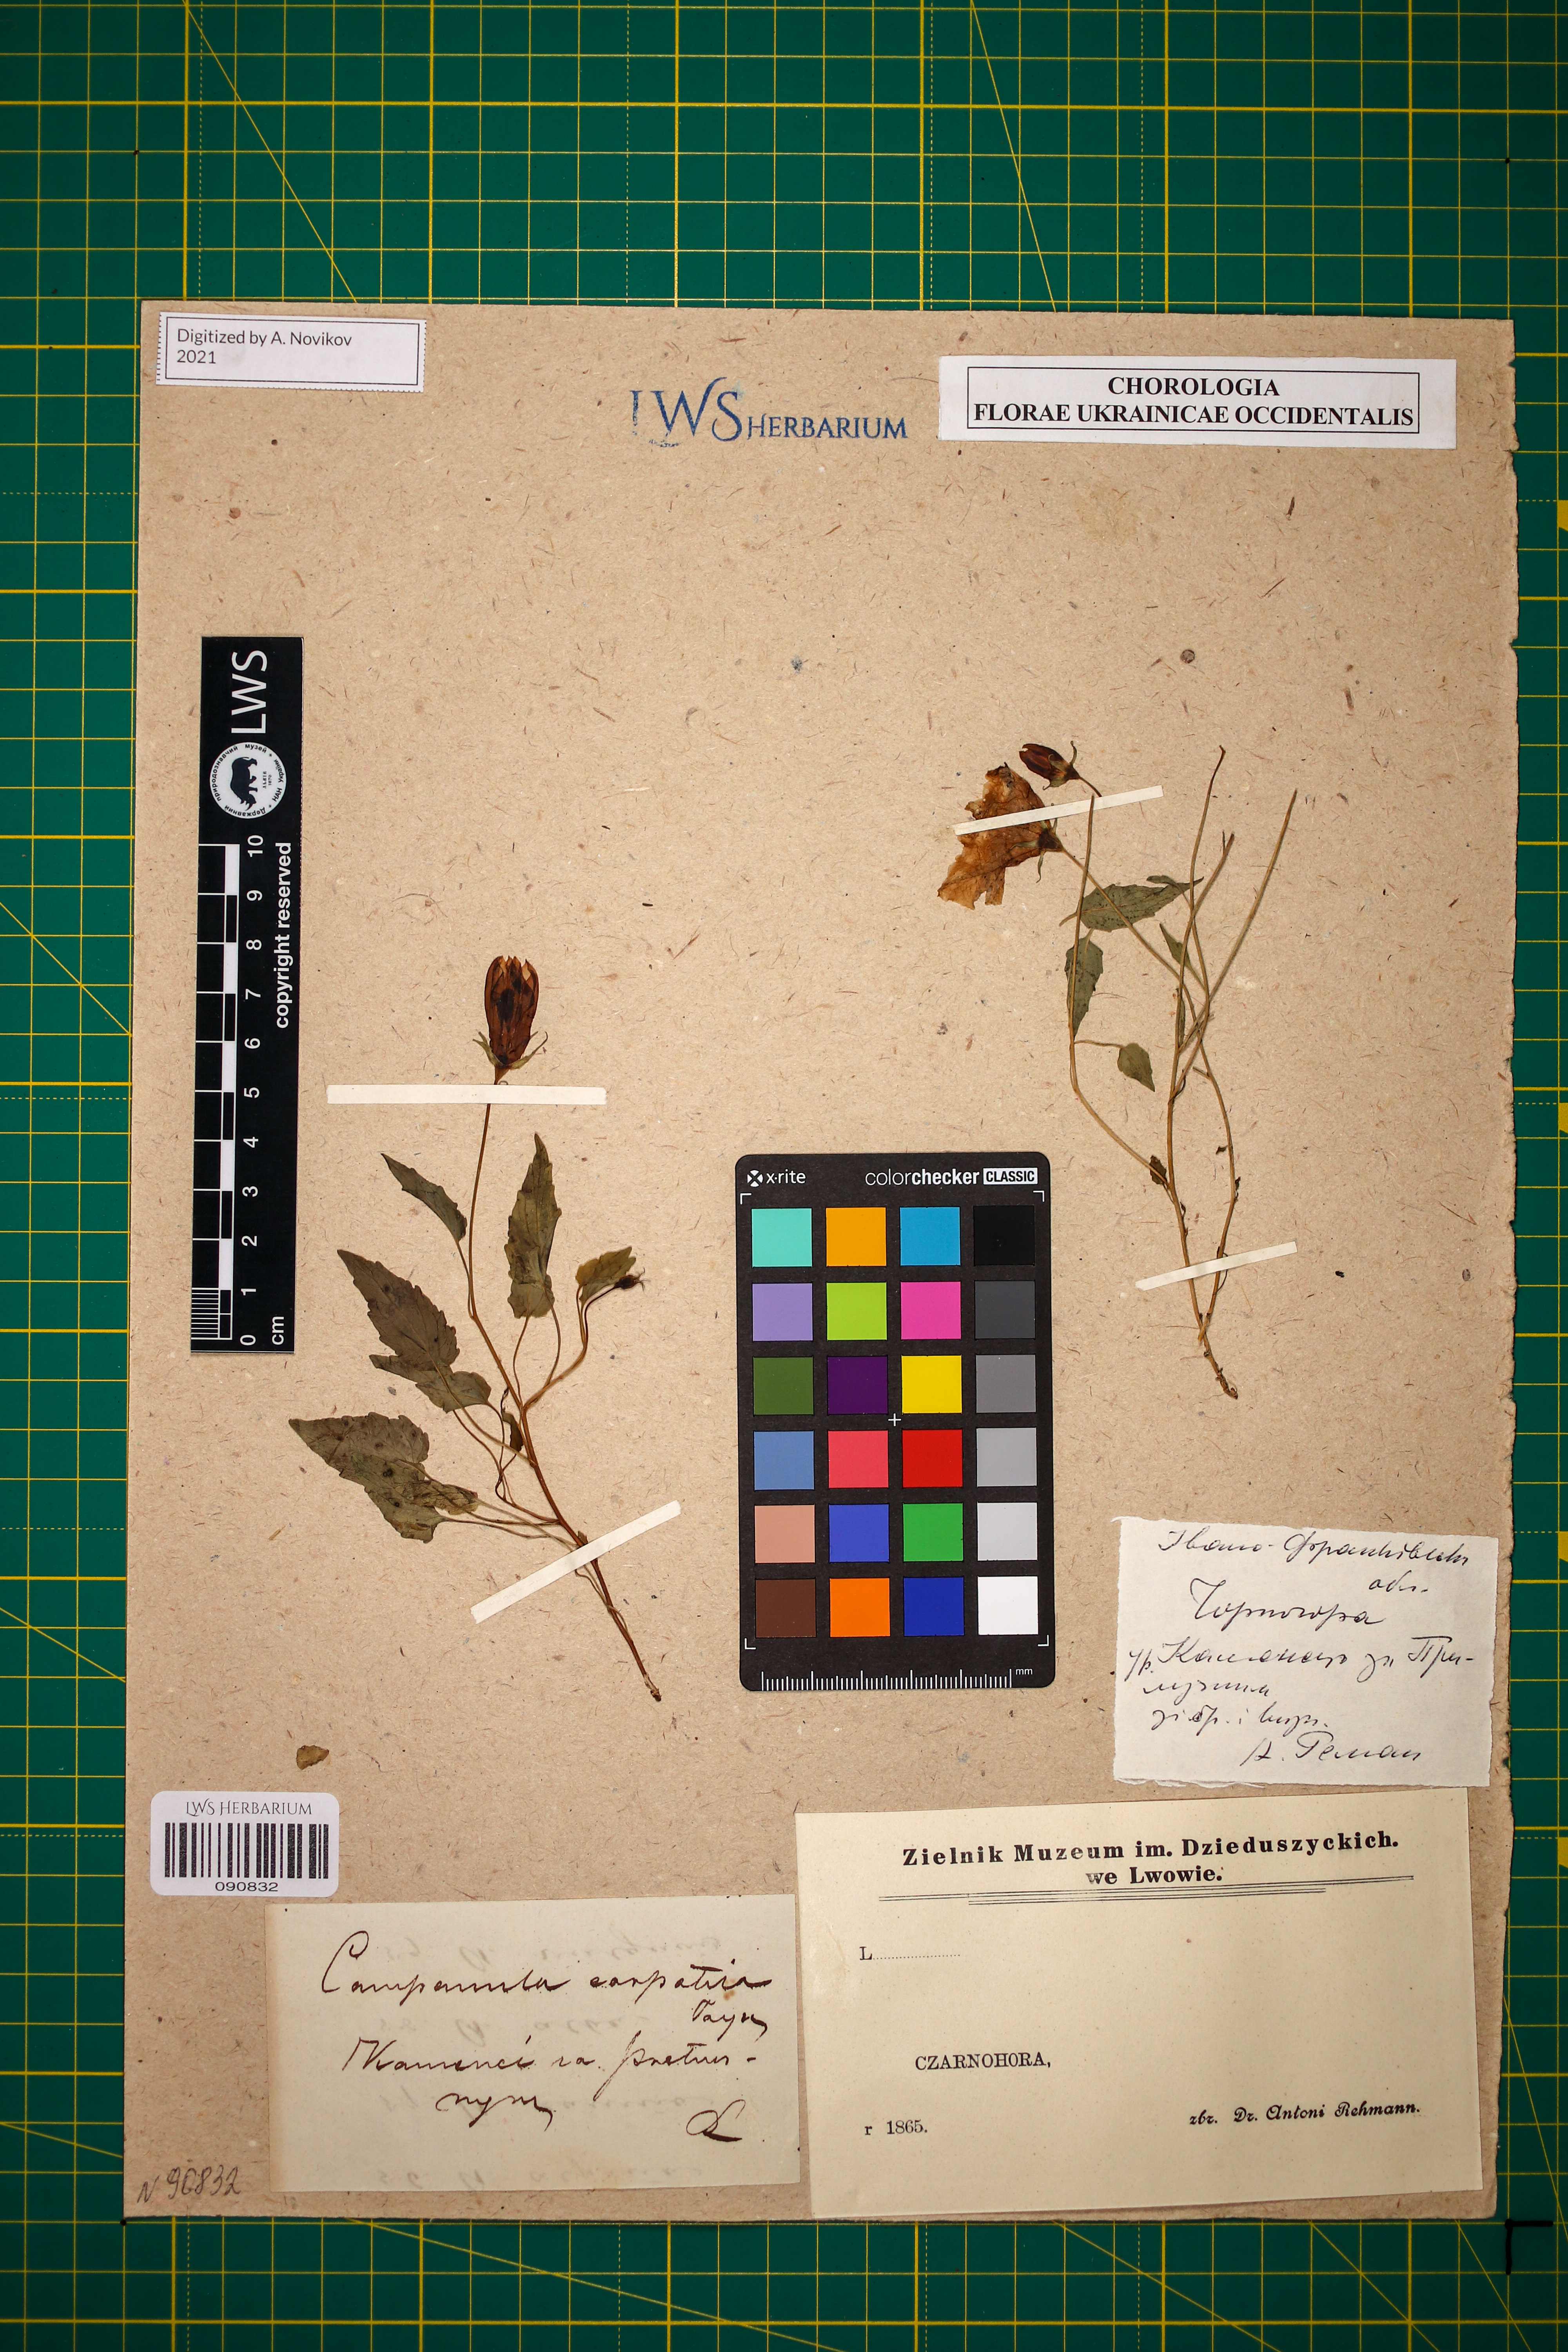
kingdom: Plantae
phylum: Tracheophyta
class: Magnoliopsida
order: Asterales
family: Campanulaceae
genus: Campanula
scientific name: Campanula carpatica
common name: Tussock bellflower
